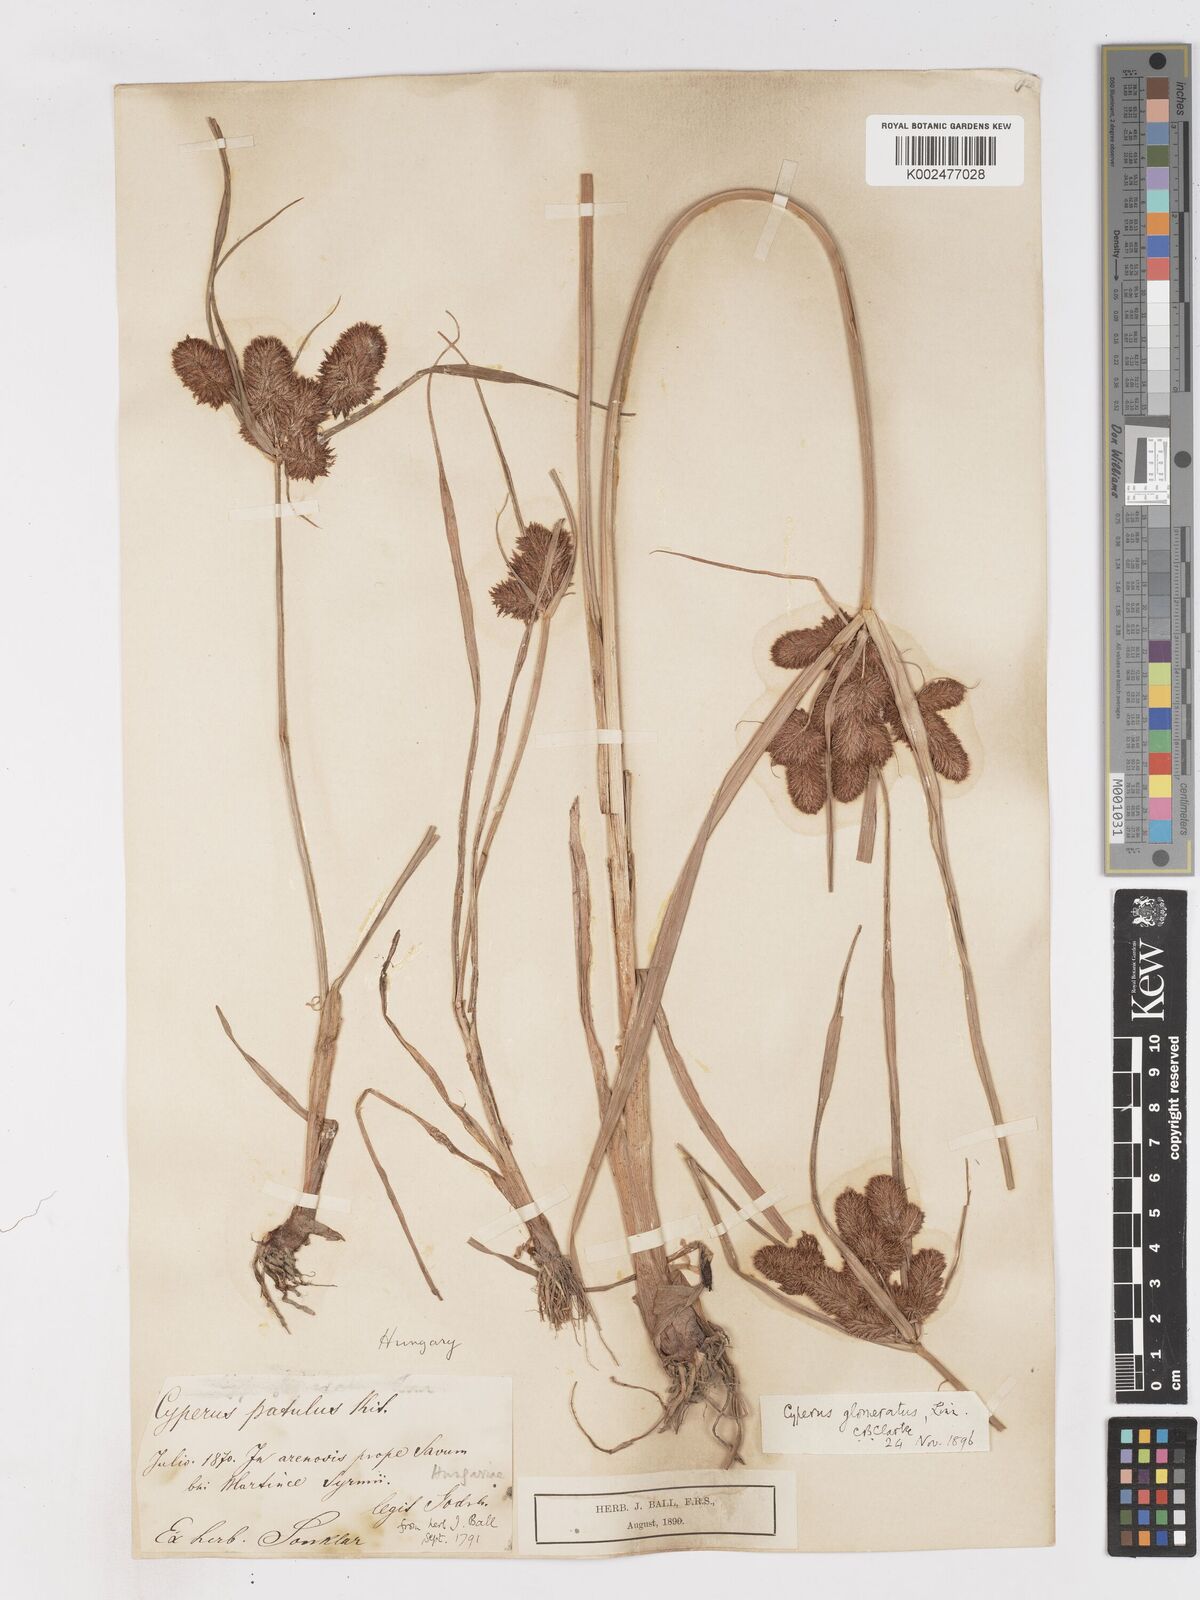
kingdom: Plantae
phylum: Tracheophyta
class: Liliopsida
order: Poales
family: Cyperaceae
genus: Cyperus
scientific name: Cyperus glomeratus
